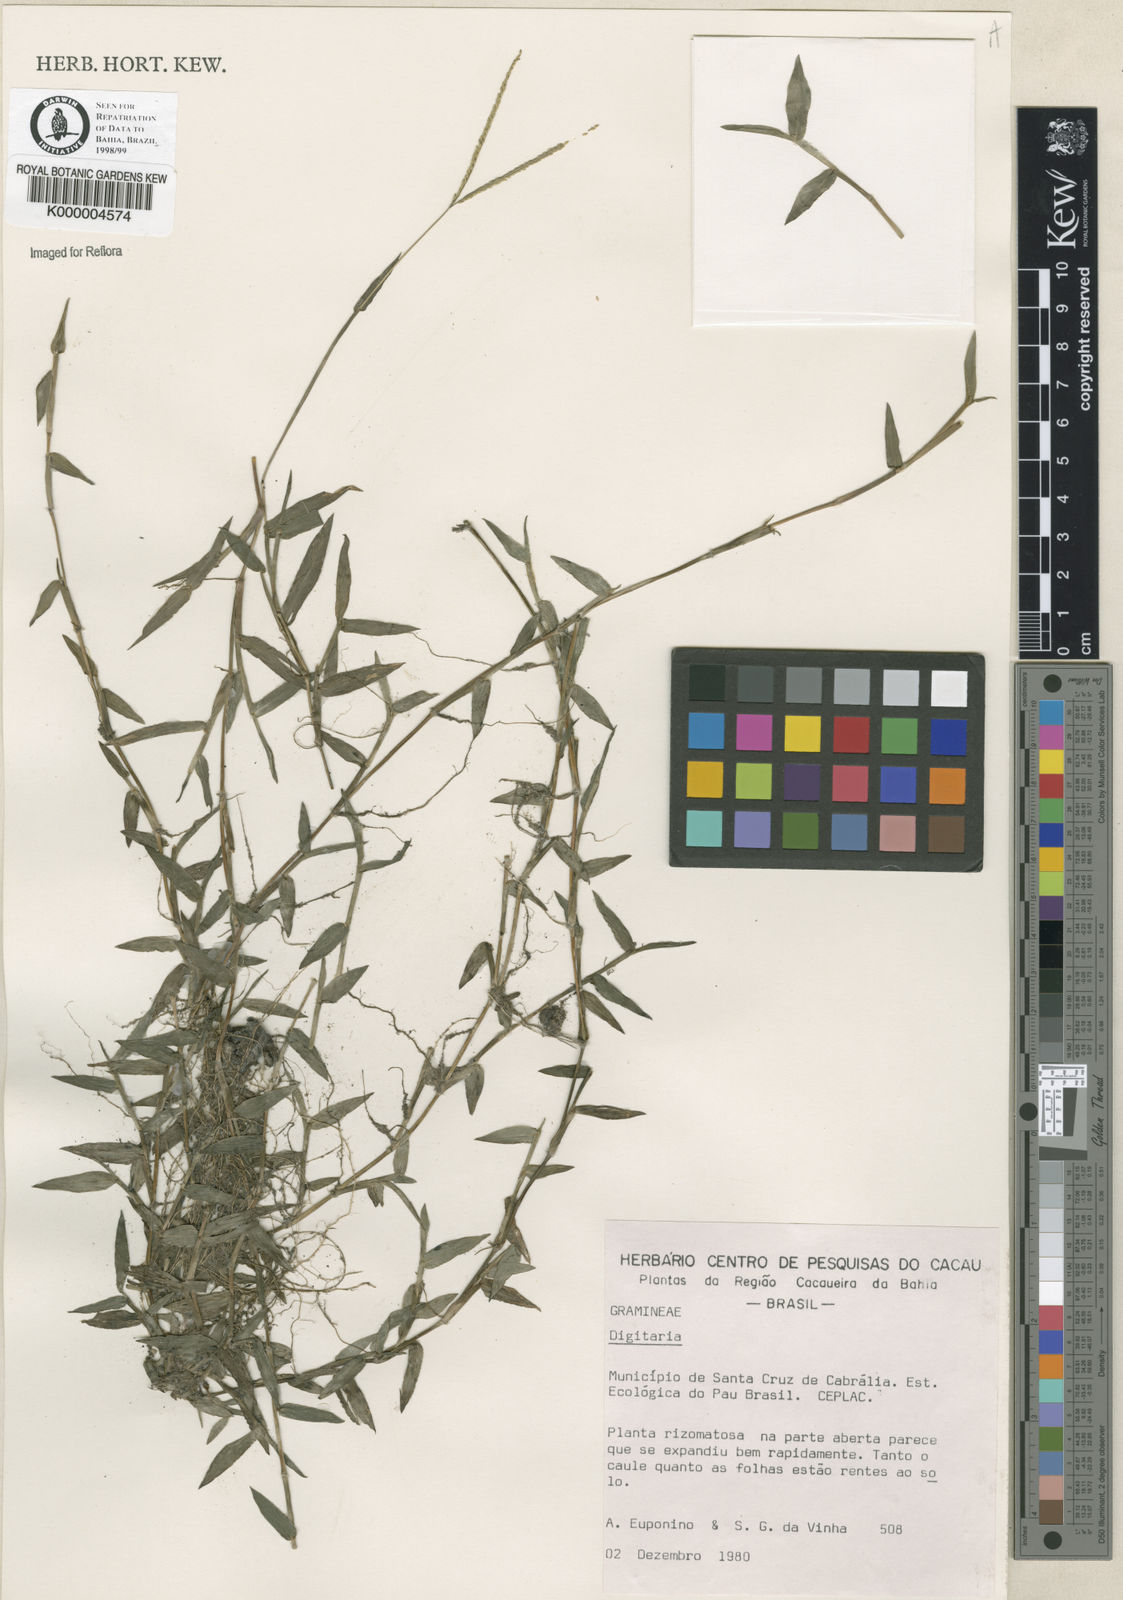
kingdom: Plantae
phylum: Tracheophyta
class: Liliopsida
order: Poales
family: Poaceae
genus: Digitaria
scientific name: Digitaria fuscescens
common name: Yellow crabgrass
